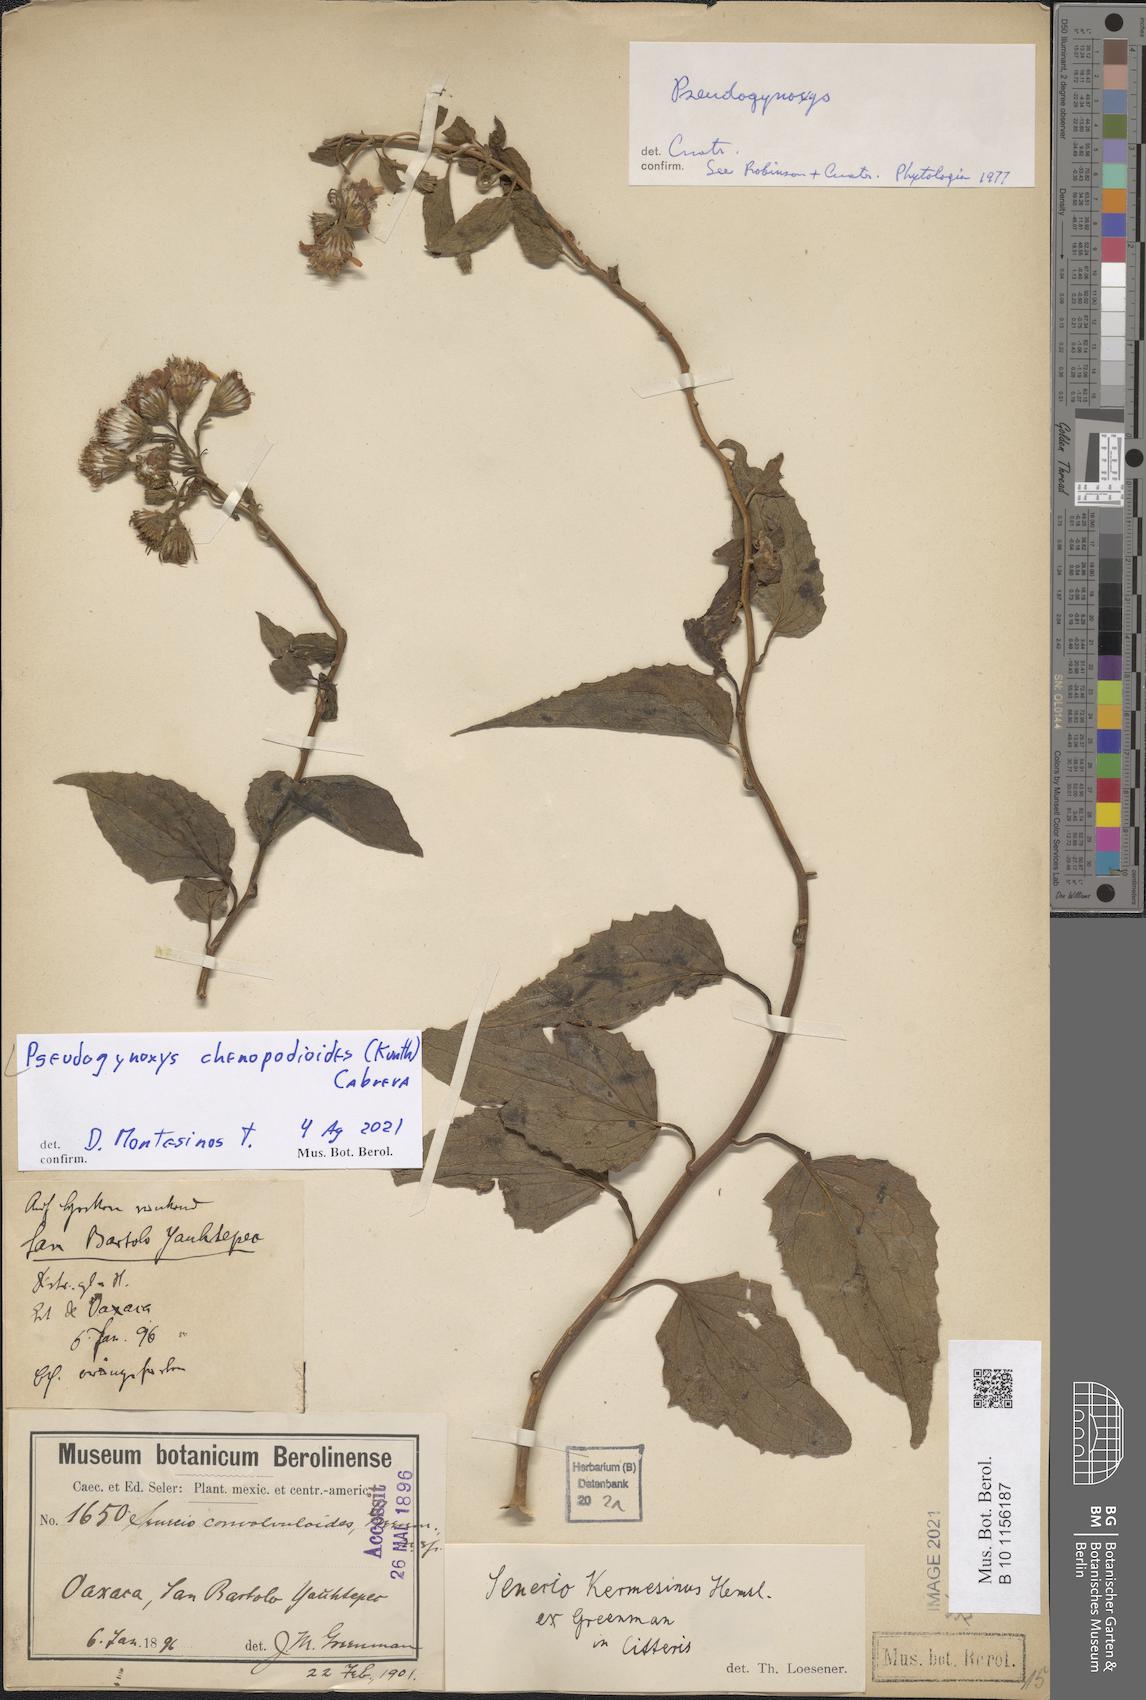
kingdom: Plantae
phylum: Tracheophyta
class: Magnoliopsida
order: Asterales
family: Asteraceae
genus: Pseudogynoxys
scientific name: Pseudogynoxys chenopodioides
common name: Mexican flamevine
